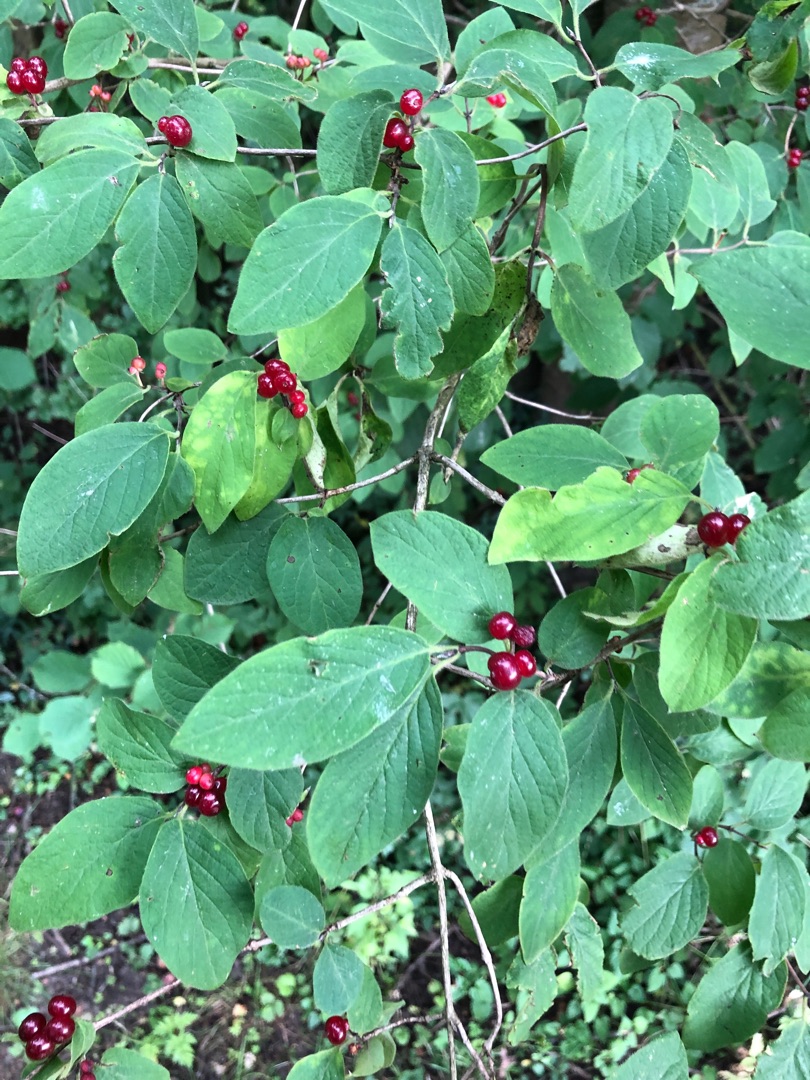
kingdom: Plantae
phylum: Tracheophyta
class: Magnoliopsida
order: Dipsacales
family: Caprifoliaceae
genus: Lonicera
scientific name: Lonicera xylosteum
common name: Dunet gedeblad
